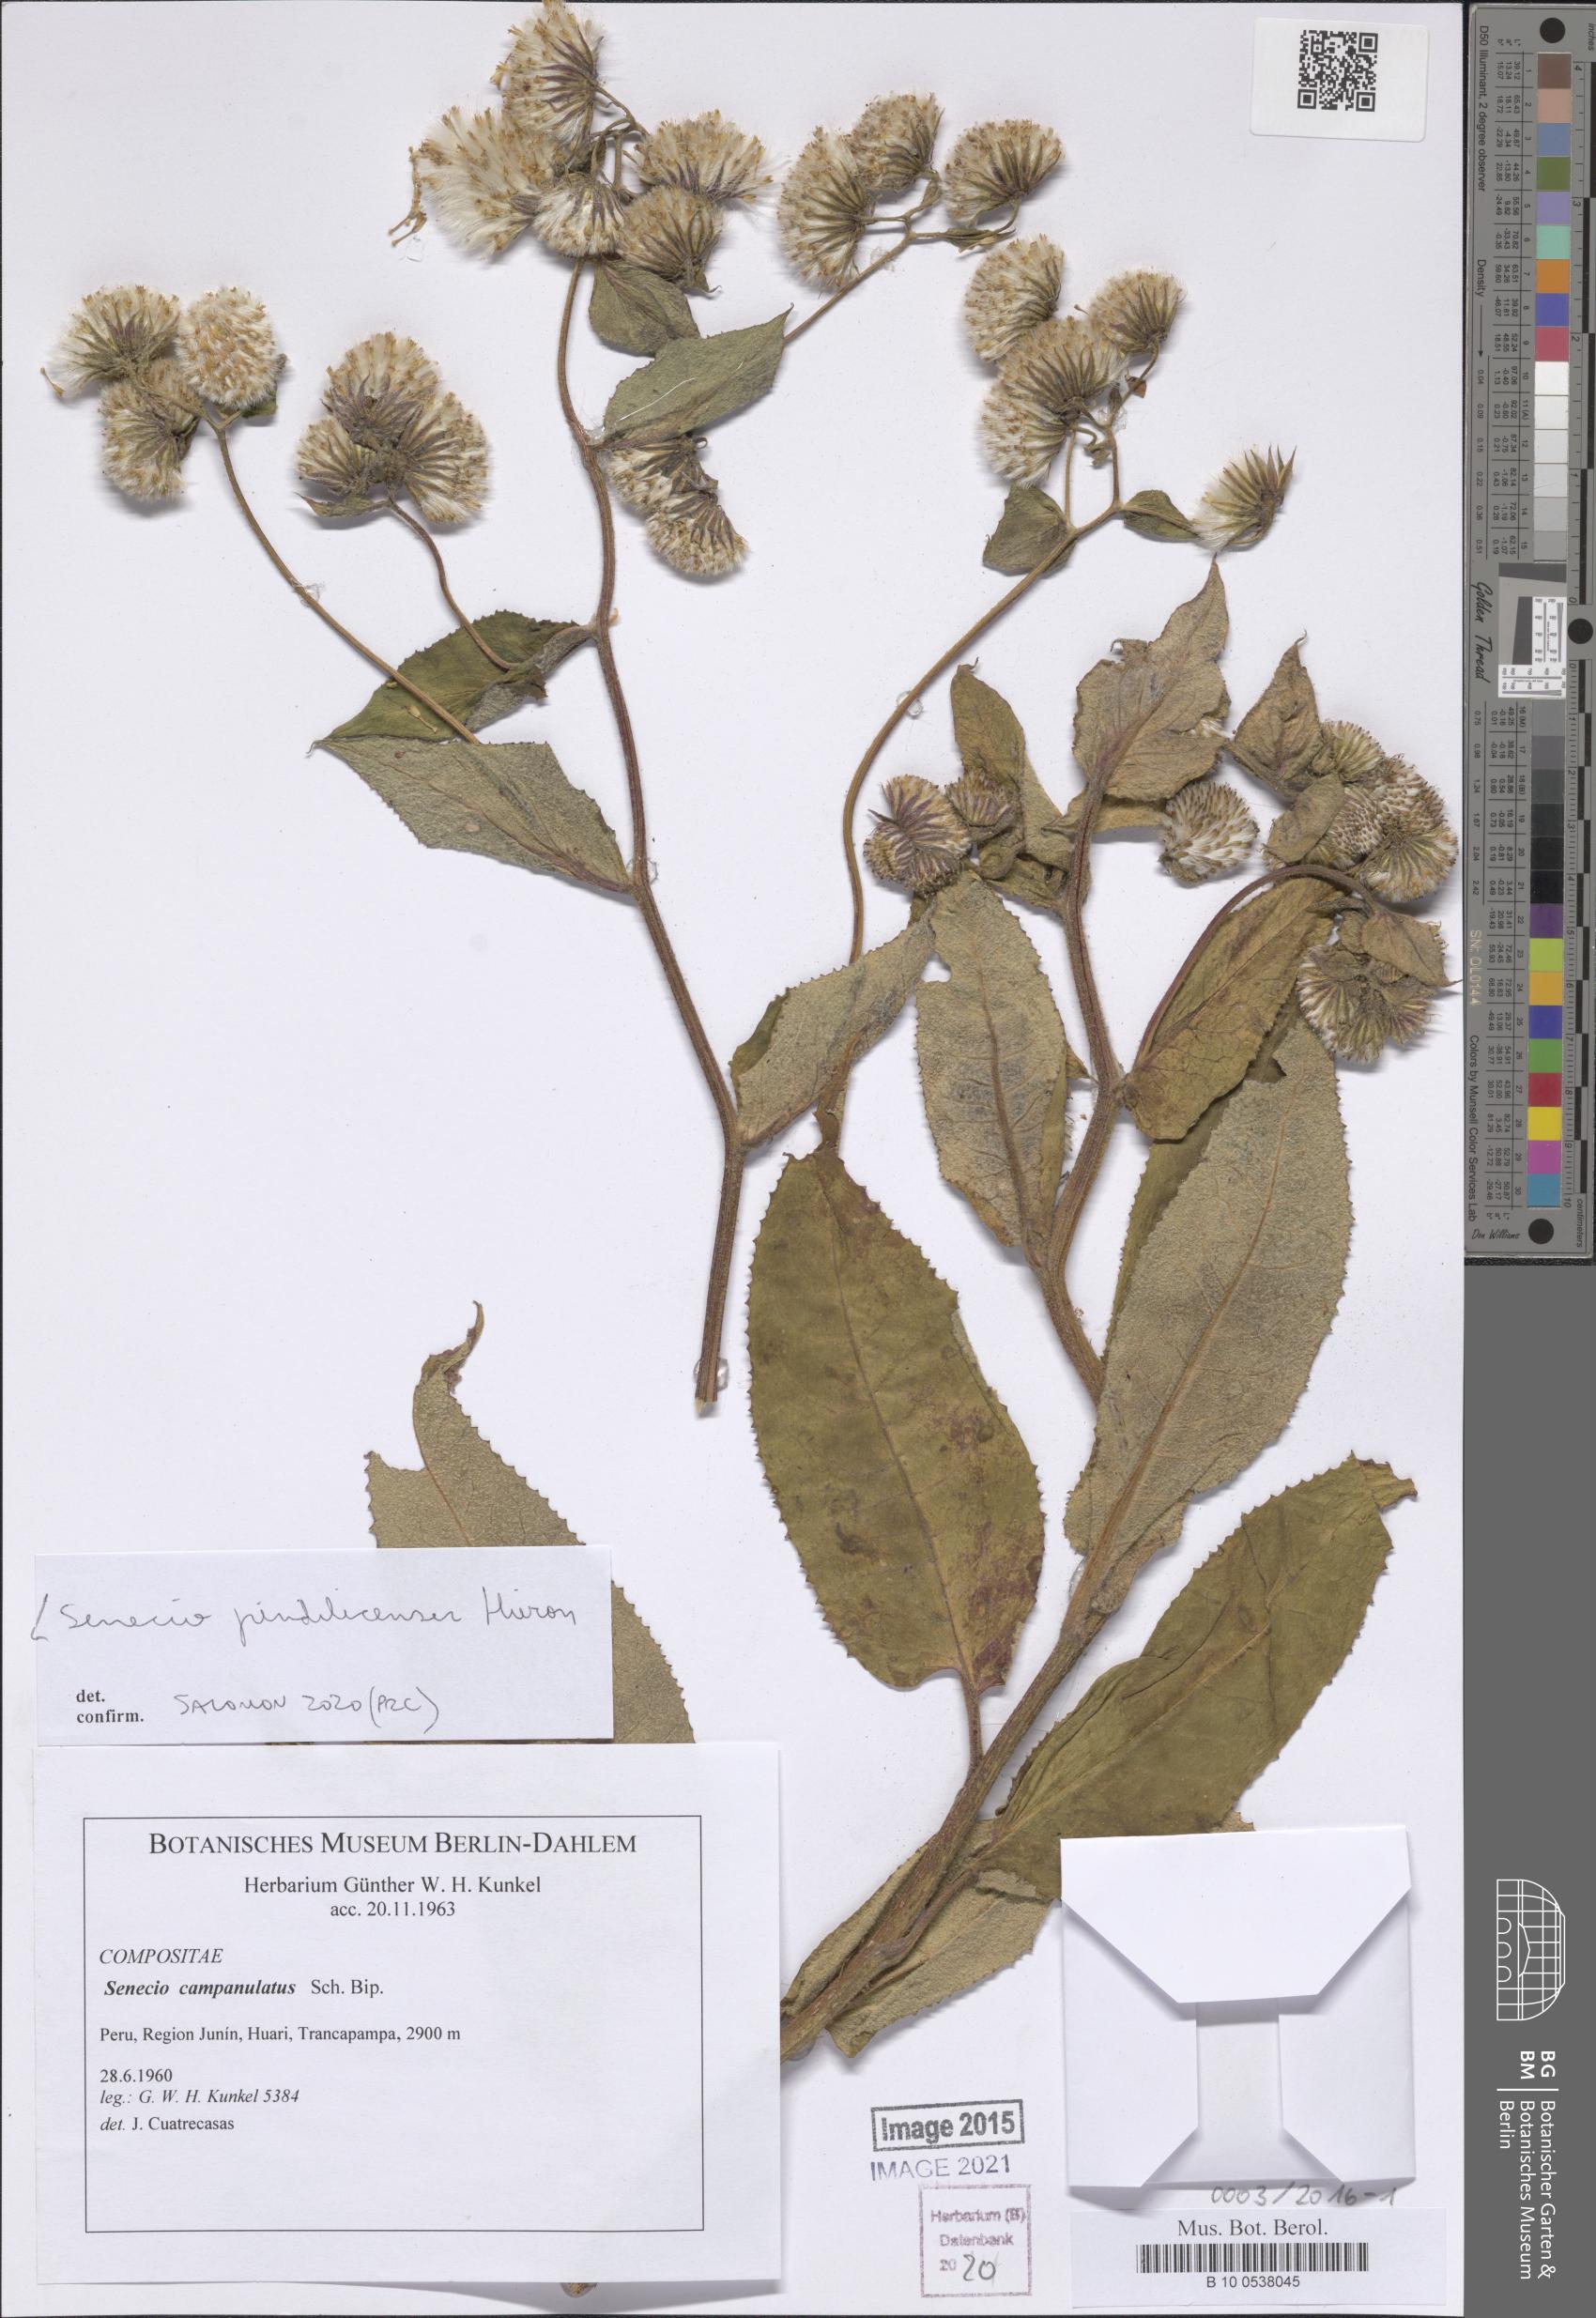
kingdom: Plantae
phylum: Tracheophyta
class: Magnoliopsida
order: Asterales
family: Asteraceae
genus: Aetheolaena
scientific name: Aetheolaena heterophylla
